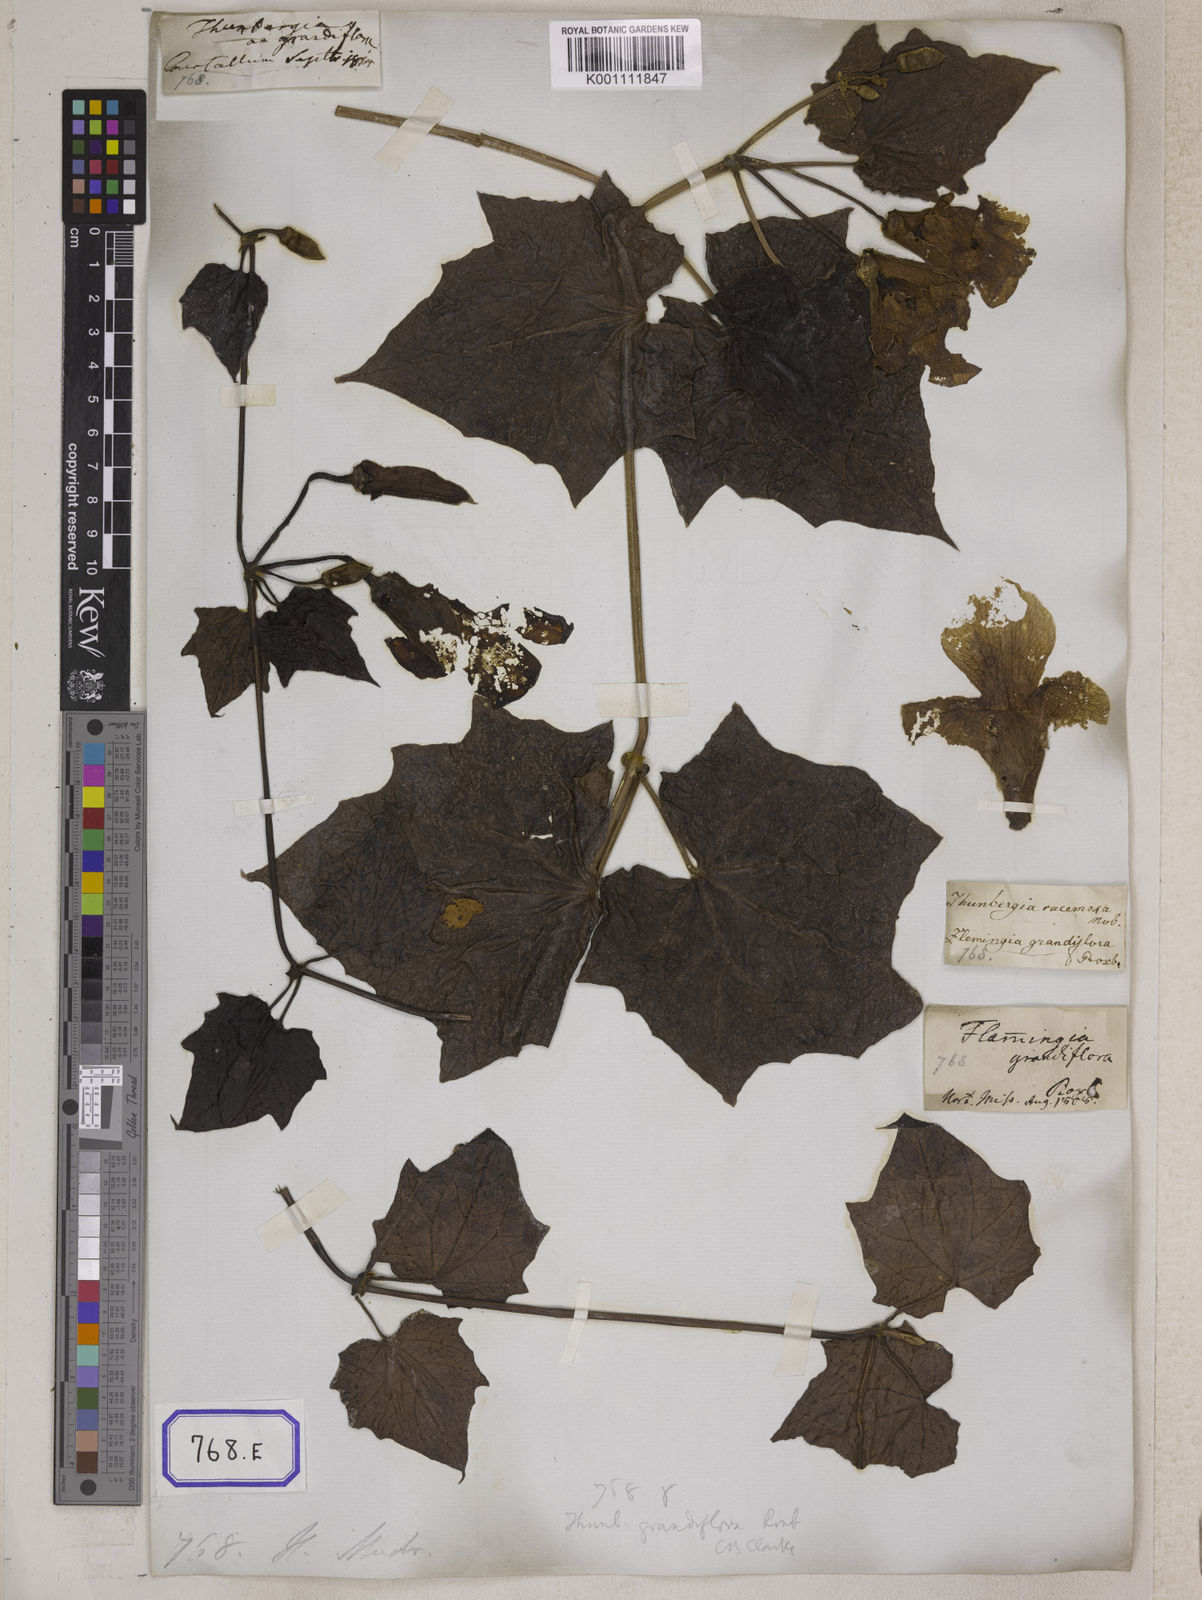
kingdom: Plantae
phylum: Tracheophyta
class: Magnoliopsida
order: Lamiales
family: Acanthaceae
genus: Thunbergia
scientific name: Thunbergia grandiflora
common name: Bengal trumpet
